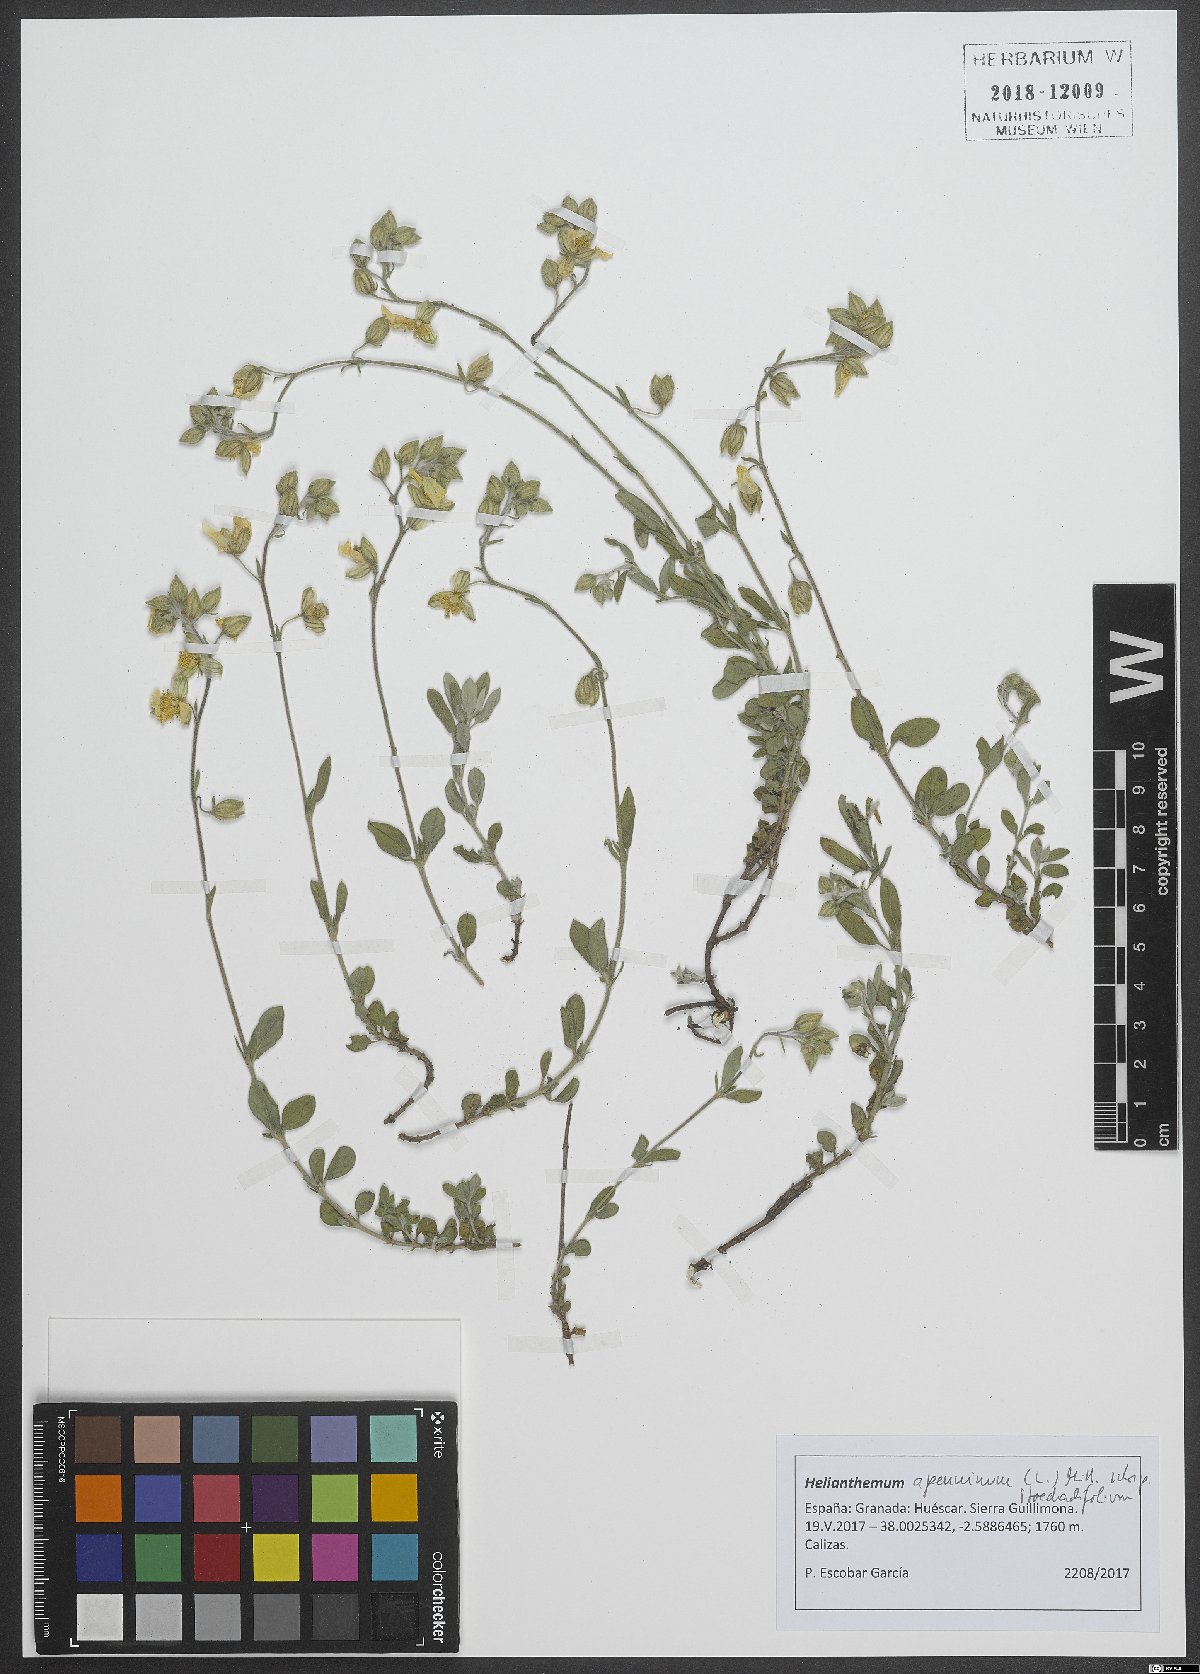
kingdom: Plantae
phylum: Tracheophyta
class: Magnoliopsida
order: Malvales
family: Cistaceae
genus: Helianthemum
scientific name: Helianthemum apenninum
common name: White rock-rose
